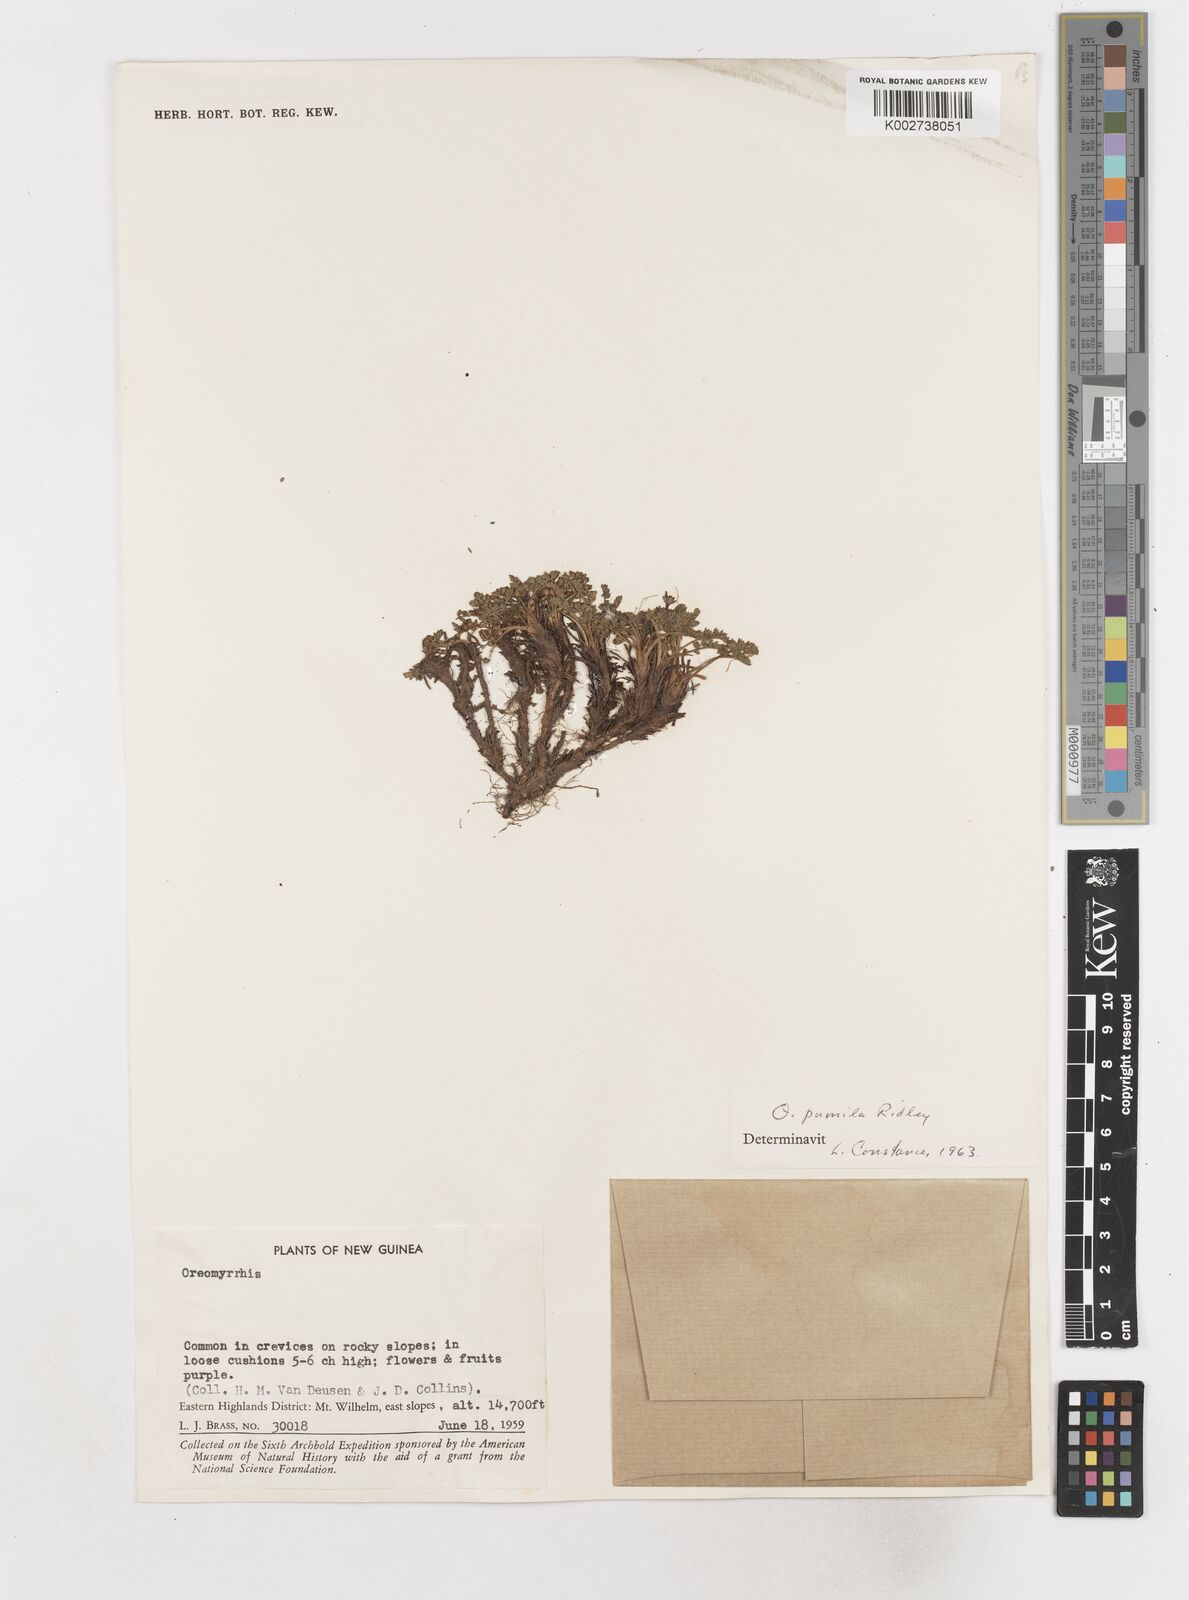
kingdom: Plantae
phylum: Tracheophyta
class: Magnoliopsida
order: Apiales
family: Apiaceae
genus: Chaerophyllum
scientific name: Chaerophyllum pumilum
